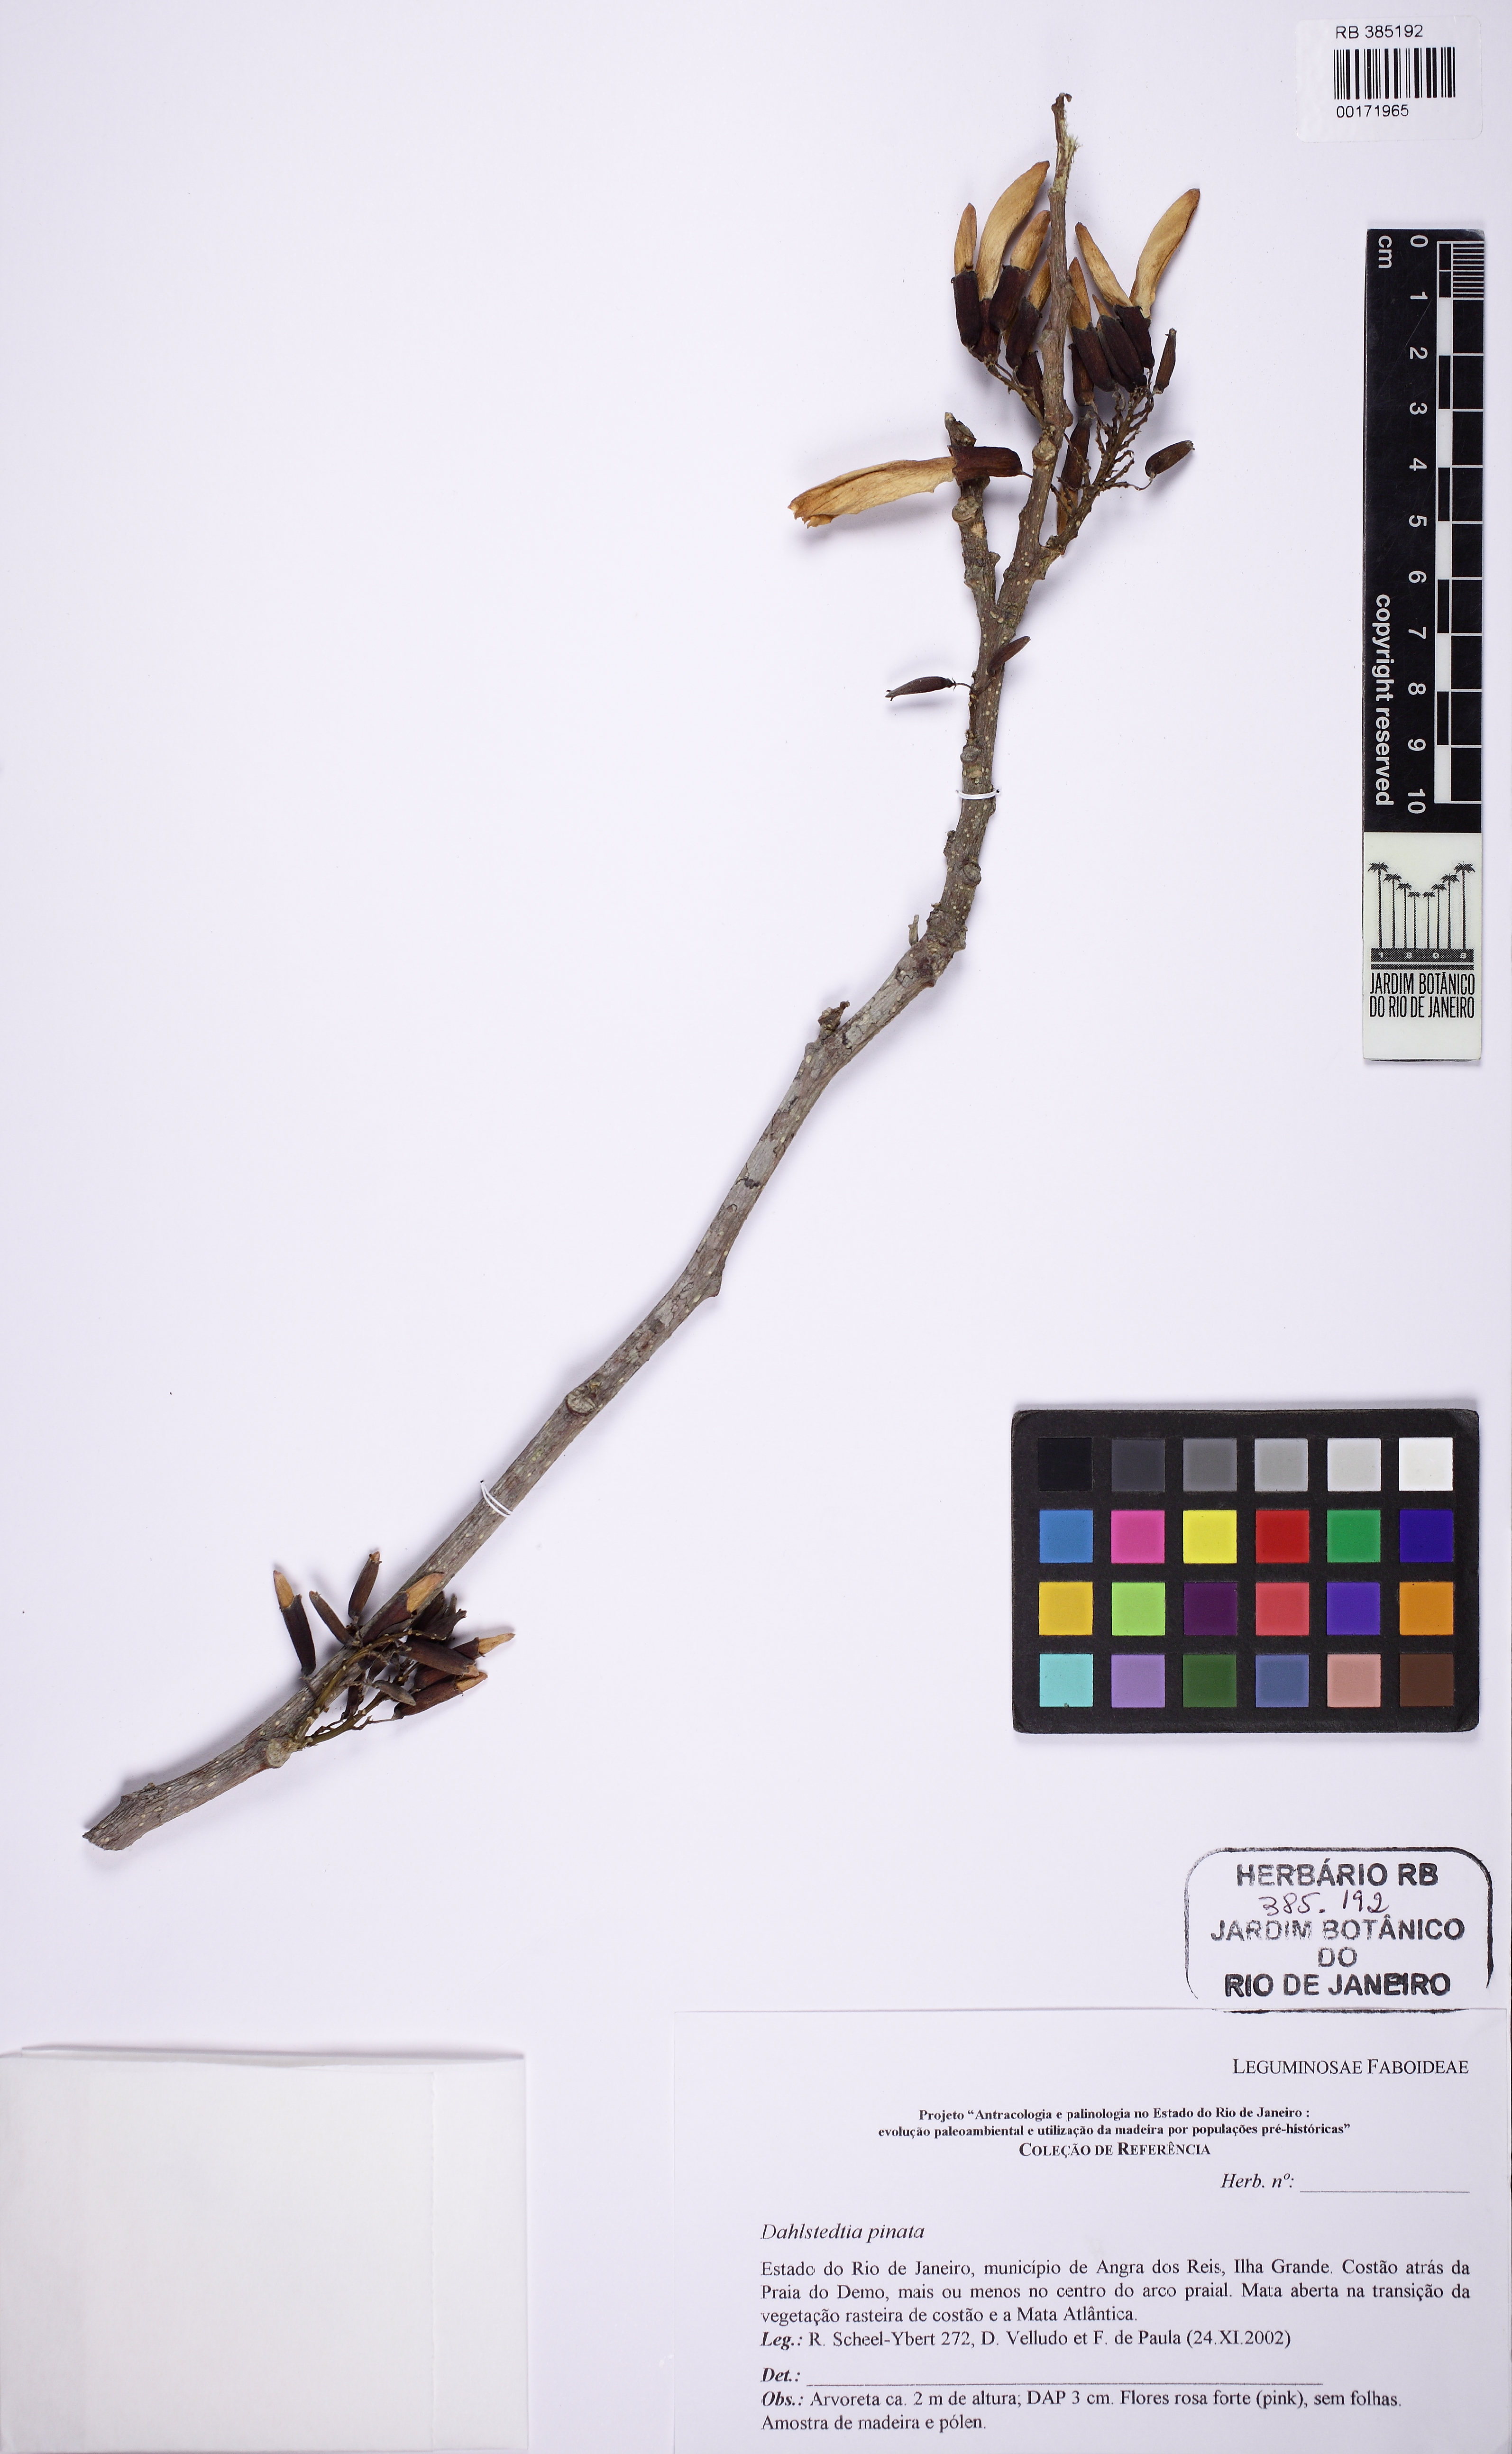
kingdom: Plantae
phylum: Tracheophyta
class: Magnoliopsida
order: Fabales
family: Fabaceae
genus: Dahlstedtia
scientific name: Dahlstedtia pinnata
